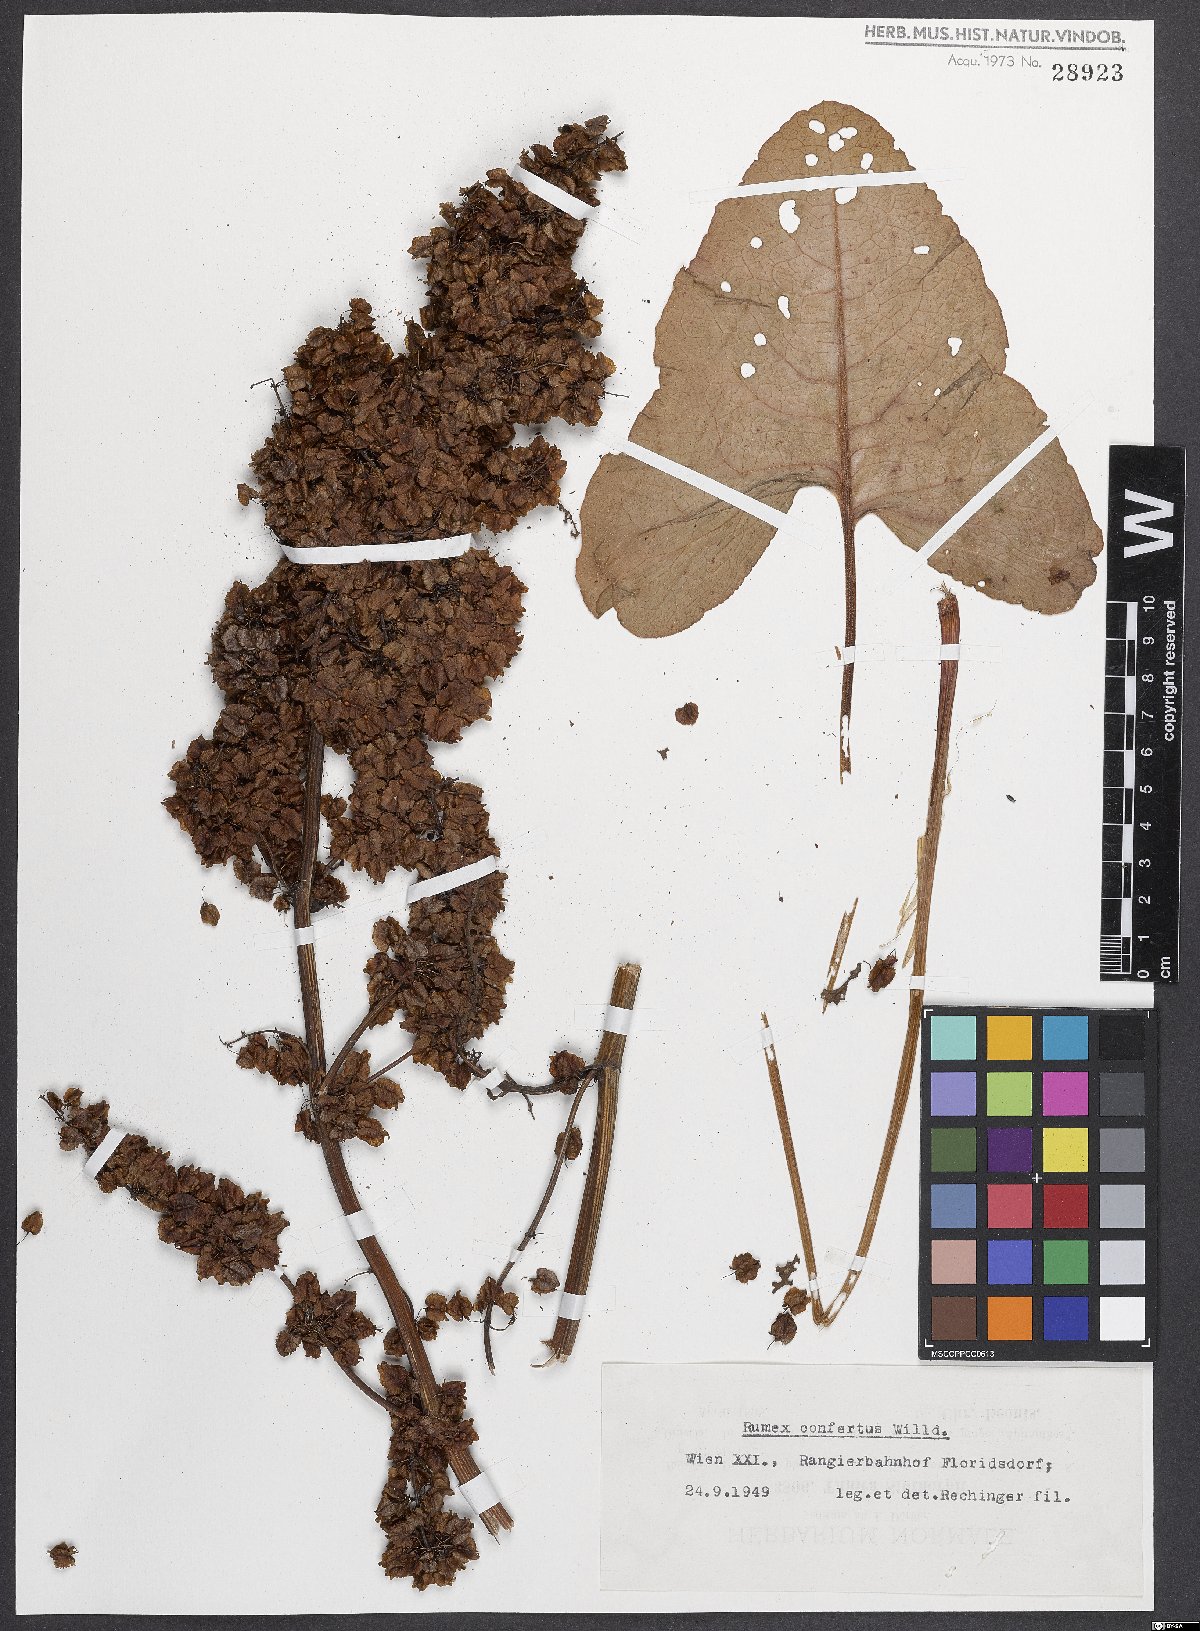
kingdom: Plantae
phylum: Tracheophyta
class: Magnoliopsida
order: Caryophyllales
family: Polygonaceae
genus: Rumex
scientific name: Rumex confertus
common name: Russian dock
